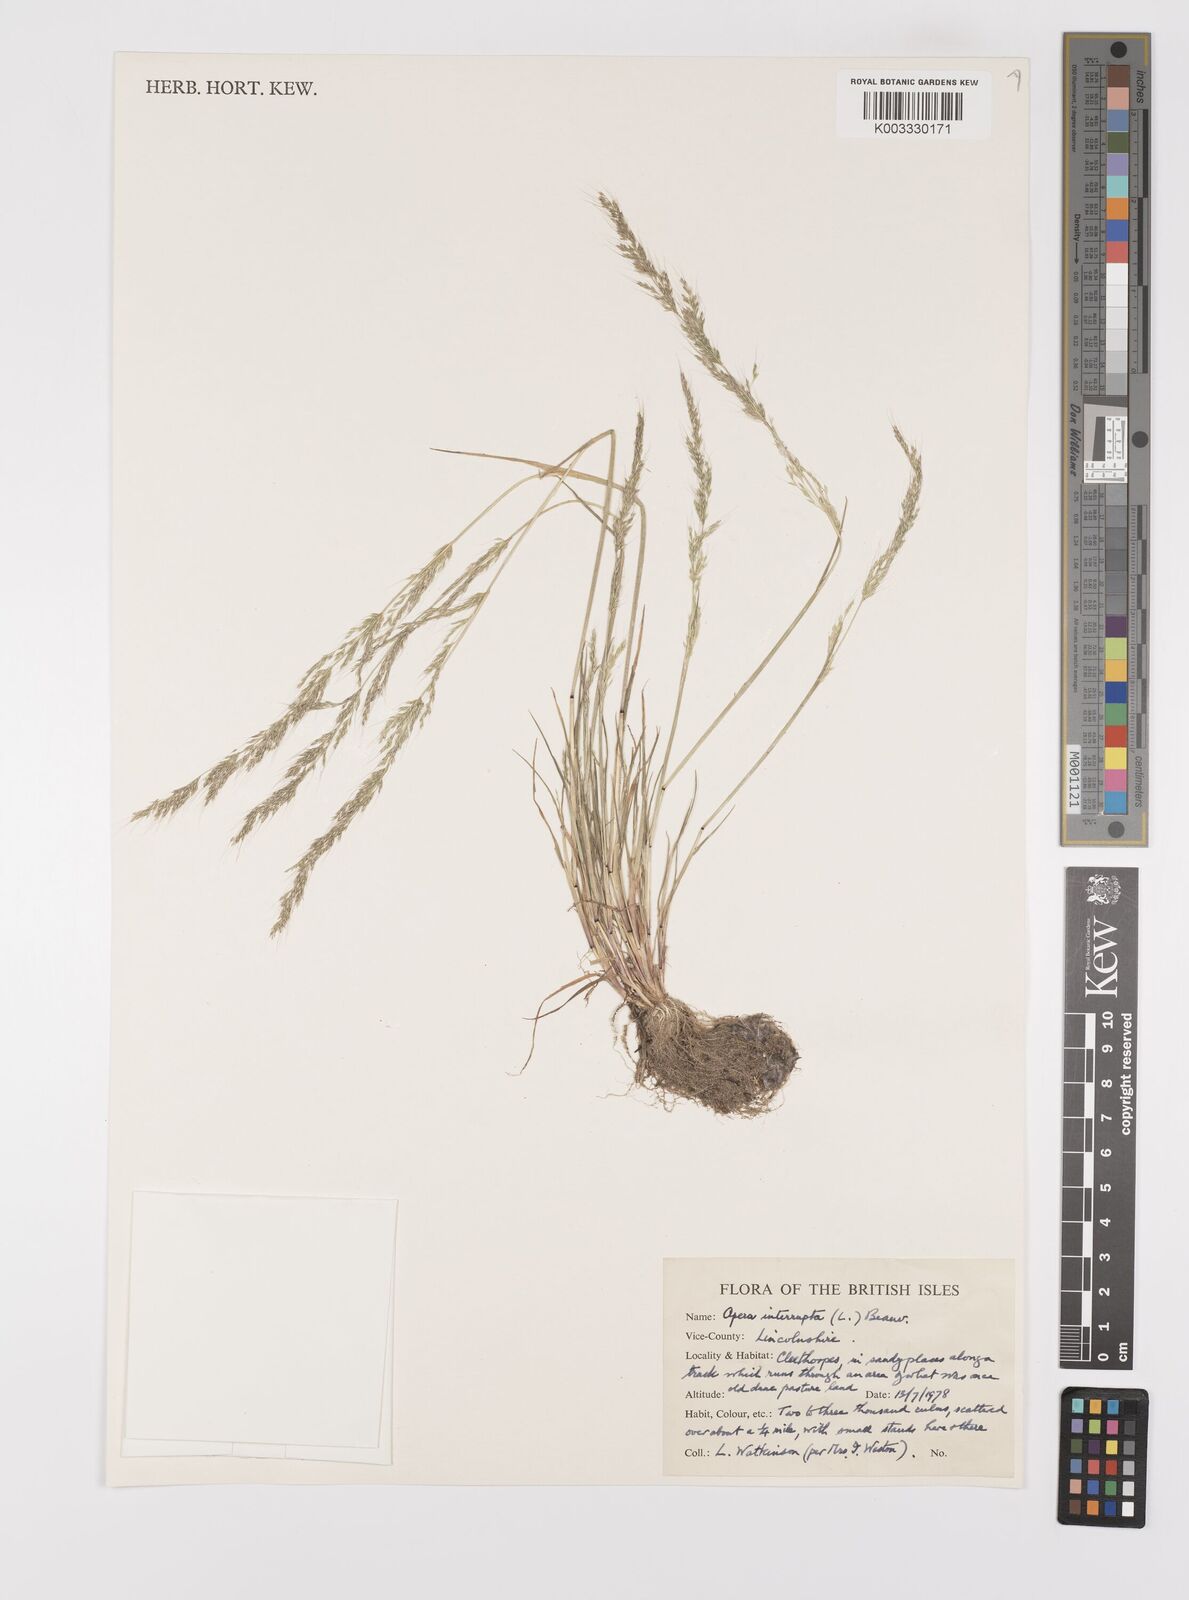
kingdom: Plantae
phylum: Tracheophyta
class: Liliopsida
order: Poales
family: Poaceae
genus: Apera
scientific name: Apera interrupta
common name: Dense silky-bent
